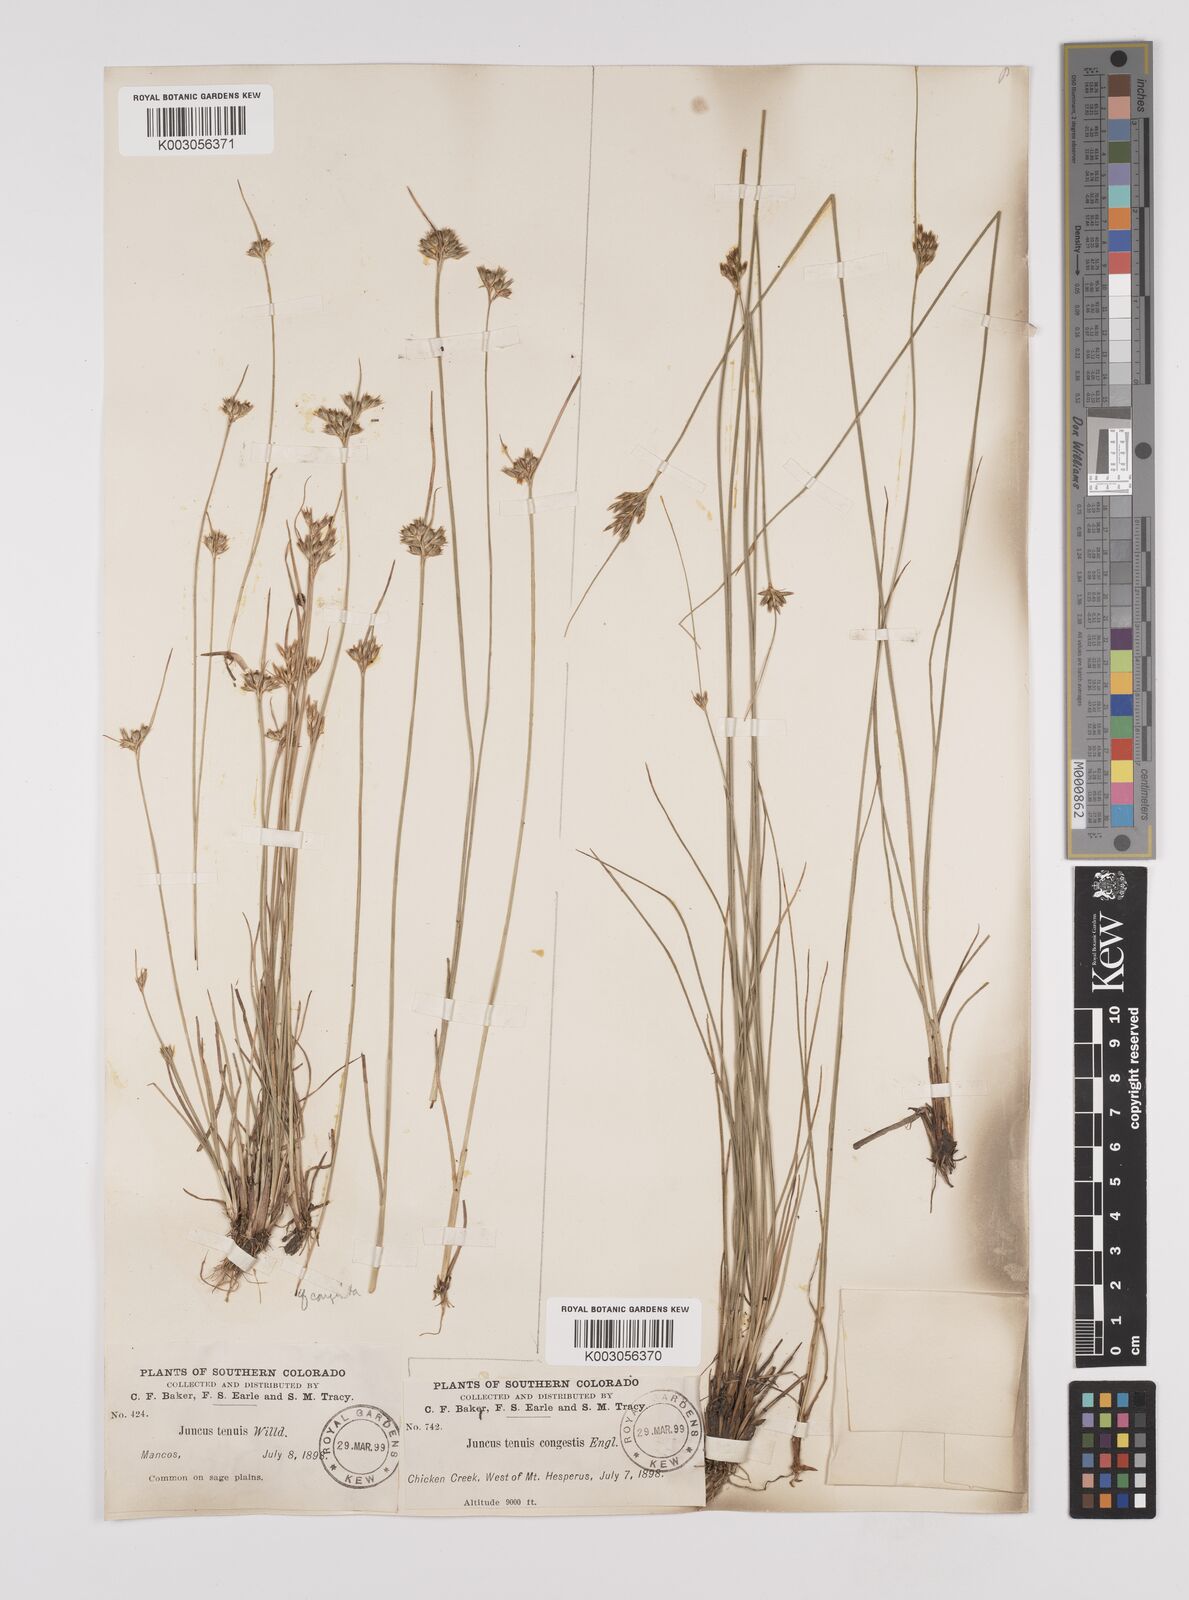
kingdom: Plantae
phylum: Tracheophyta
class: Liliopsida
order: Poales
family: Juncaceae
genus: Juncus
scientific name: Juncus tenuis
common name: Slender rush
